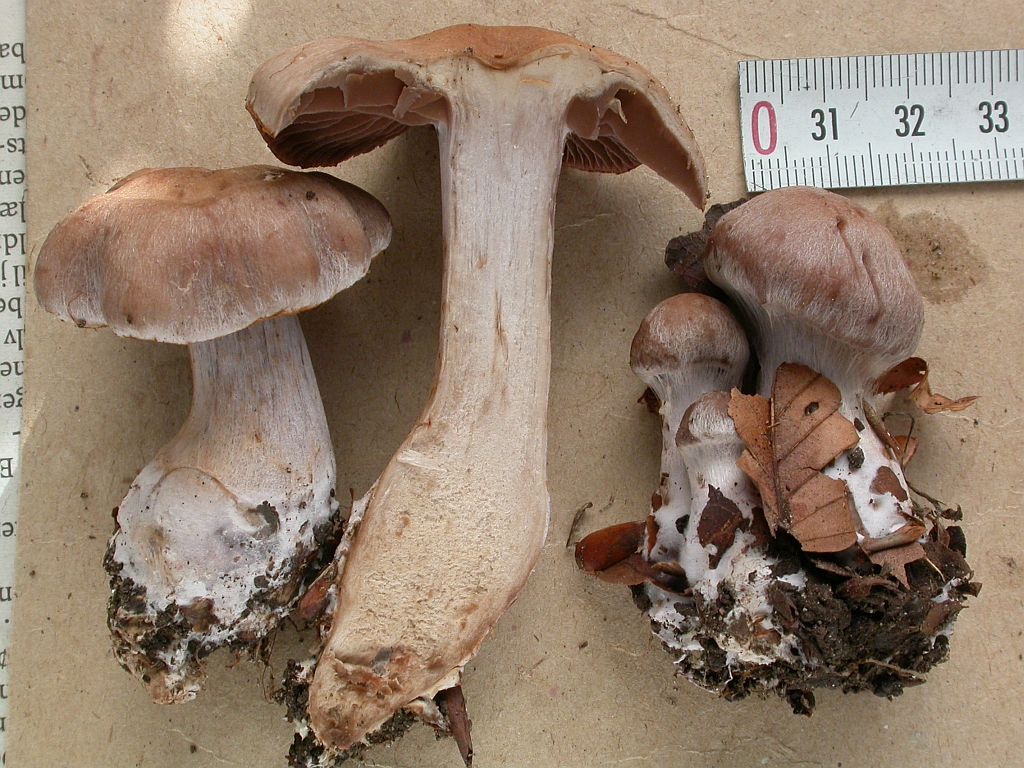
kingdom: Fungi
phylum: Basidiomycota
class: Agaricomycetes
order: Agaricales
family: Cortinariaceae
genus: Cortinarius
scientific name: Cortinarius serratissimus
